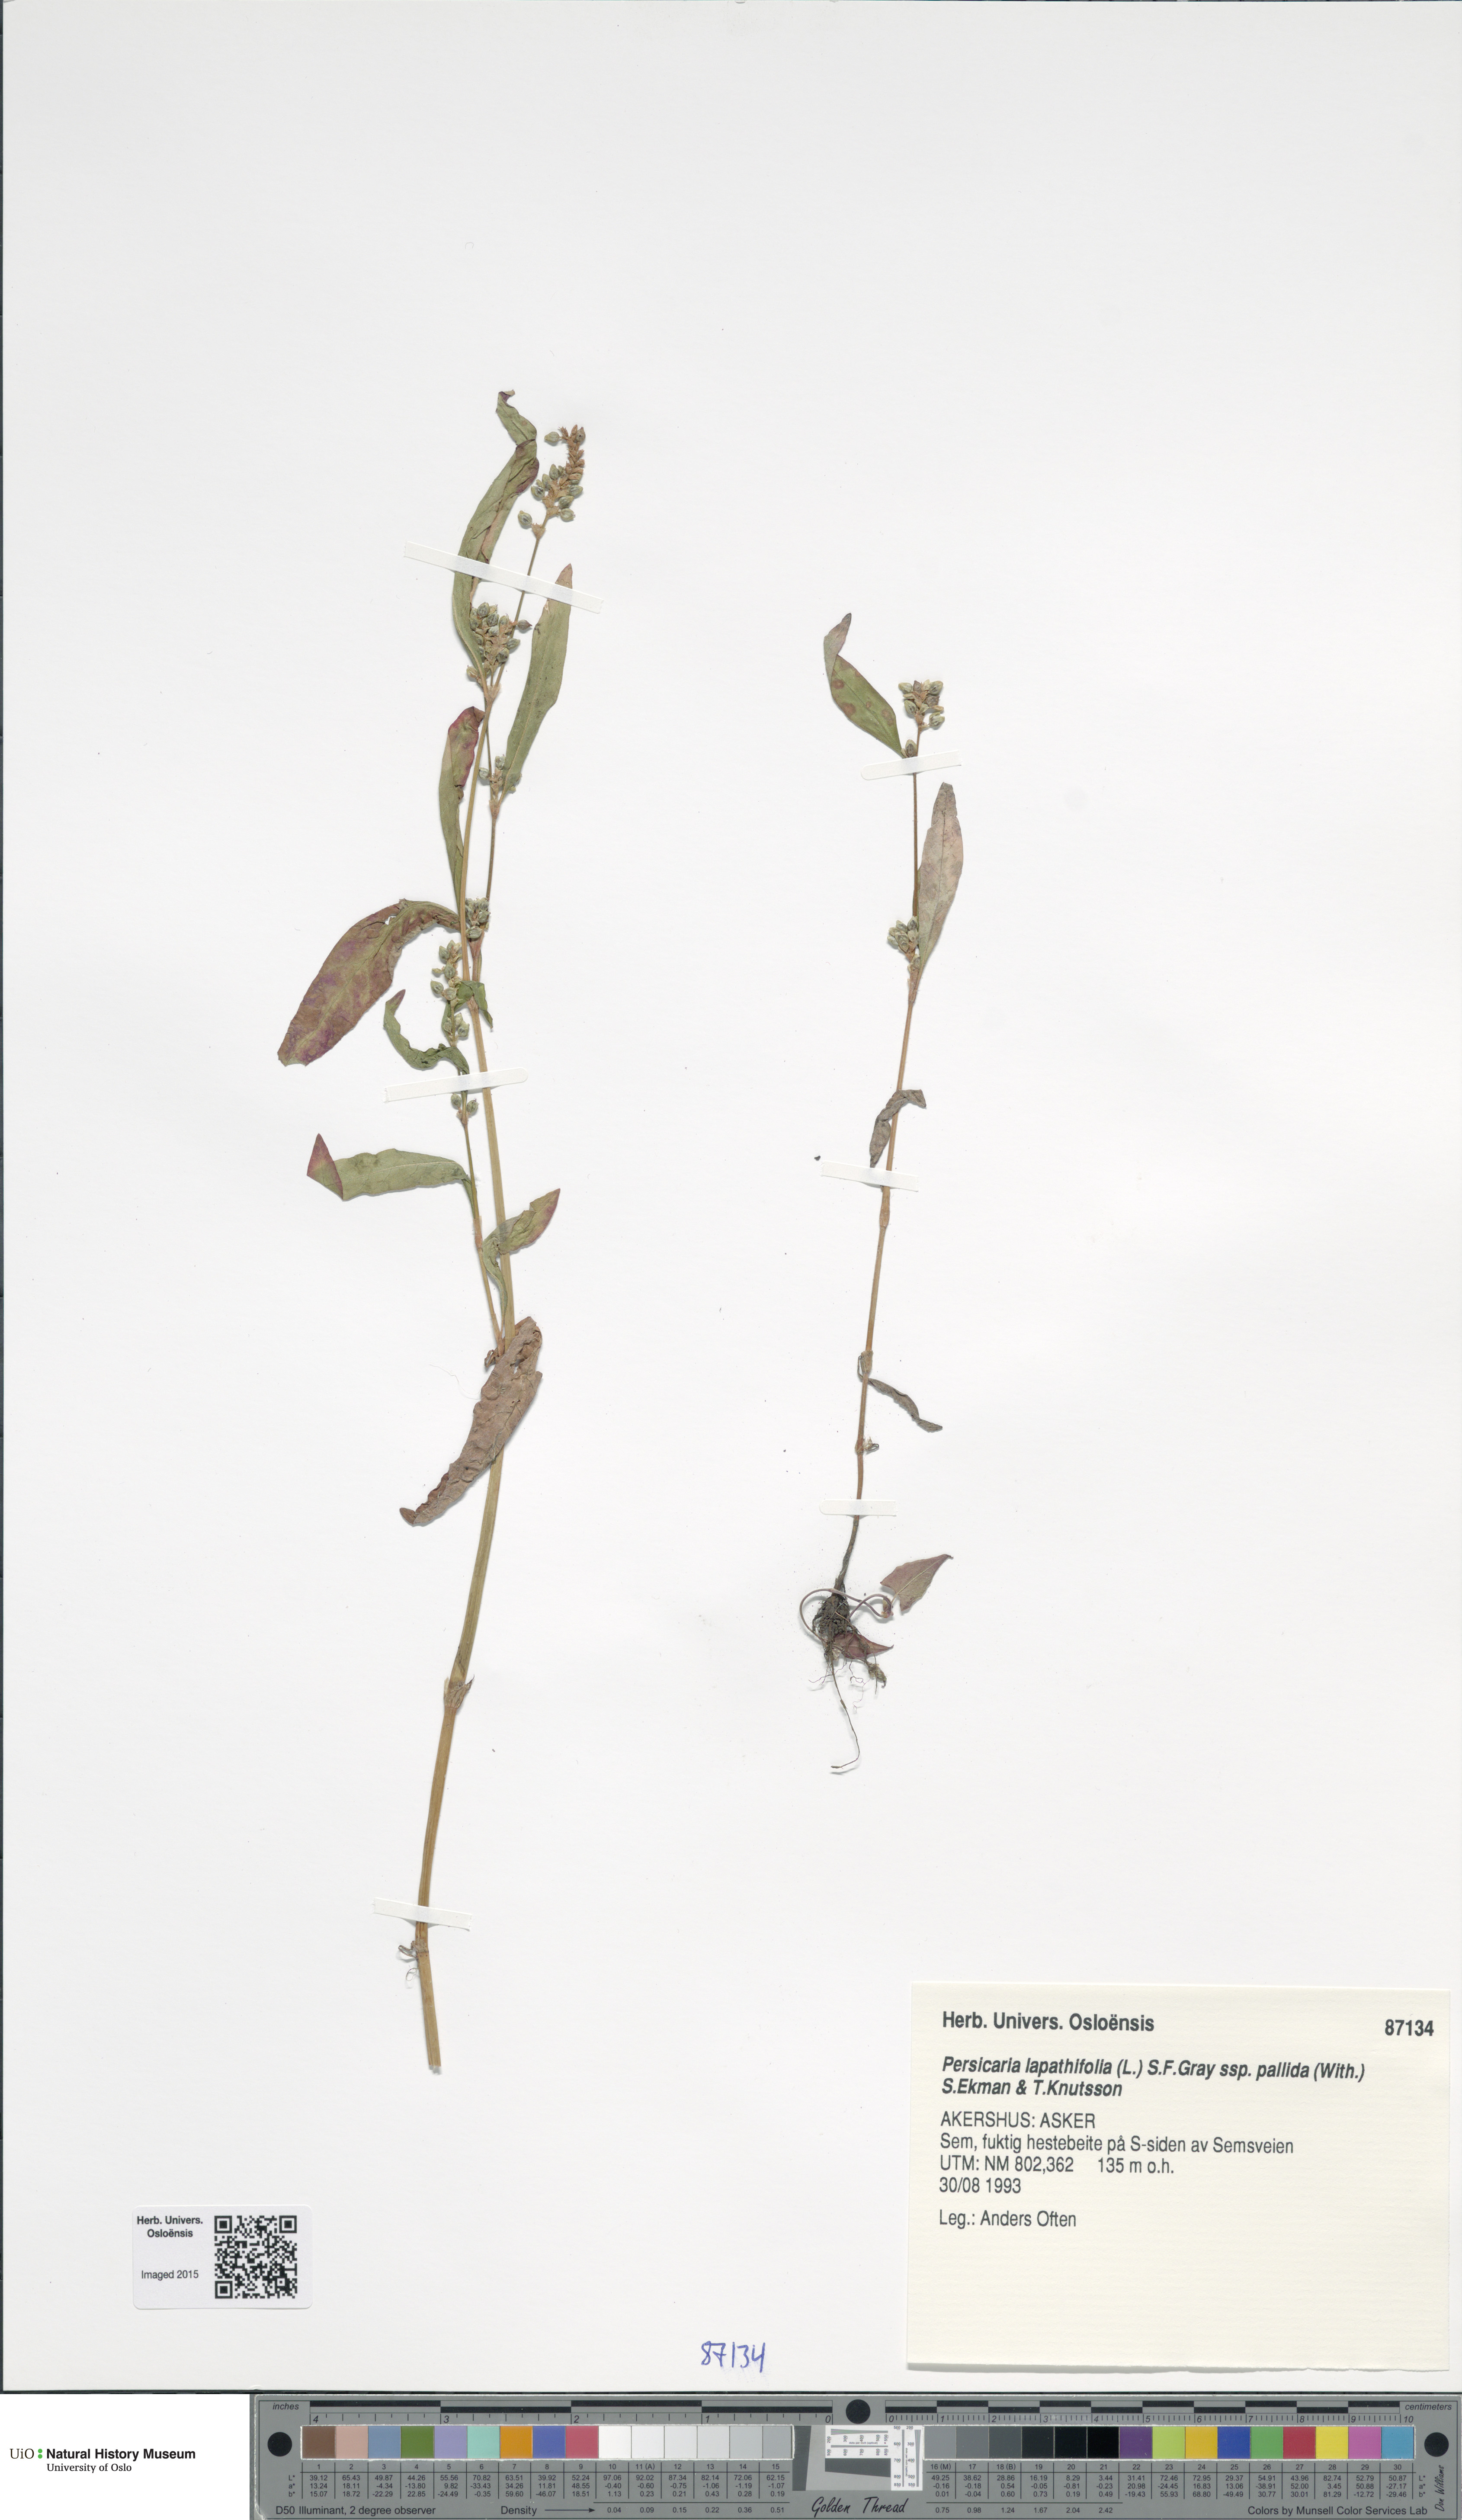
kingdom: Plantae
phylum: Tracheophyta
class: Magnoliopsida
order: Caryophyllales
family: Polygonaceae
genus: Persicaria
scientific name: Persicaria lapathifolia
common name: Curlytop knotweed
